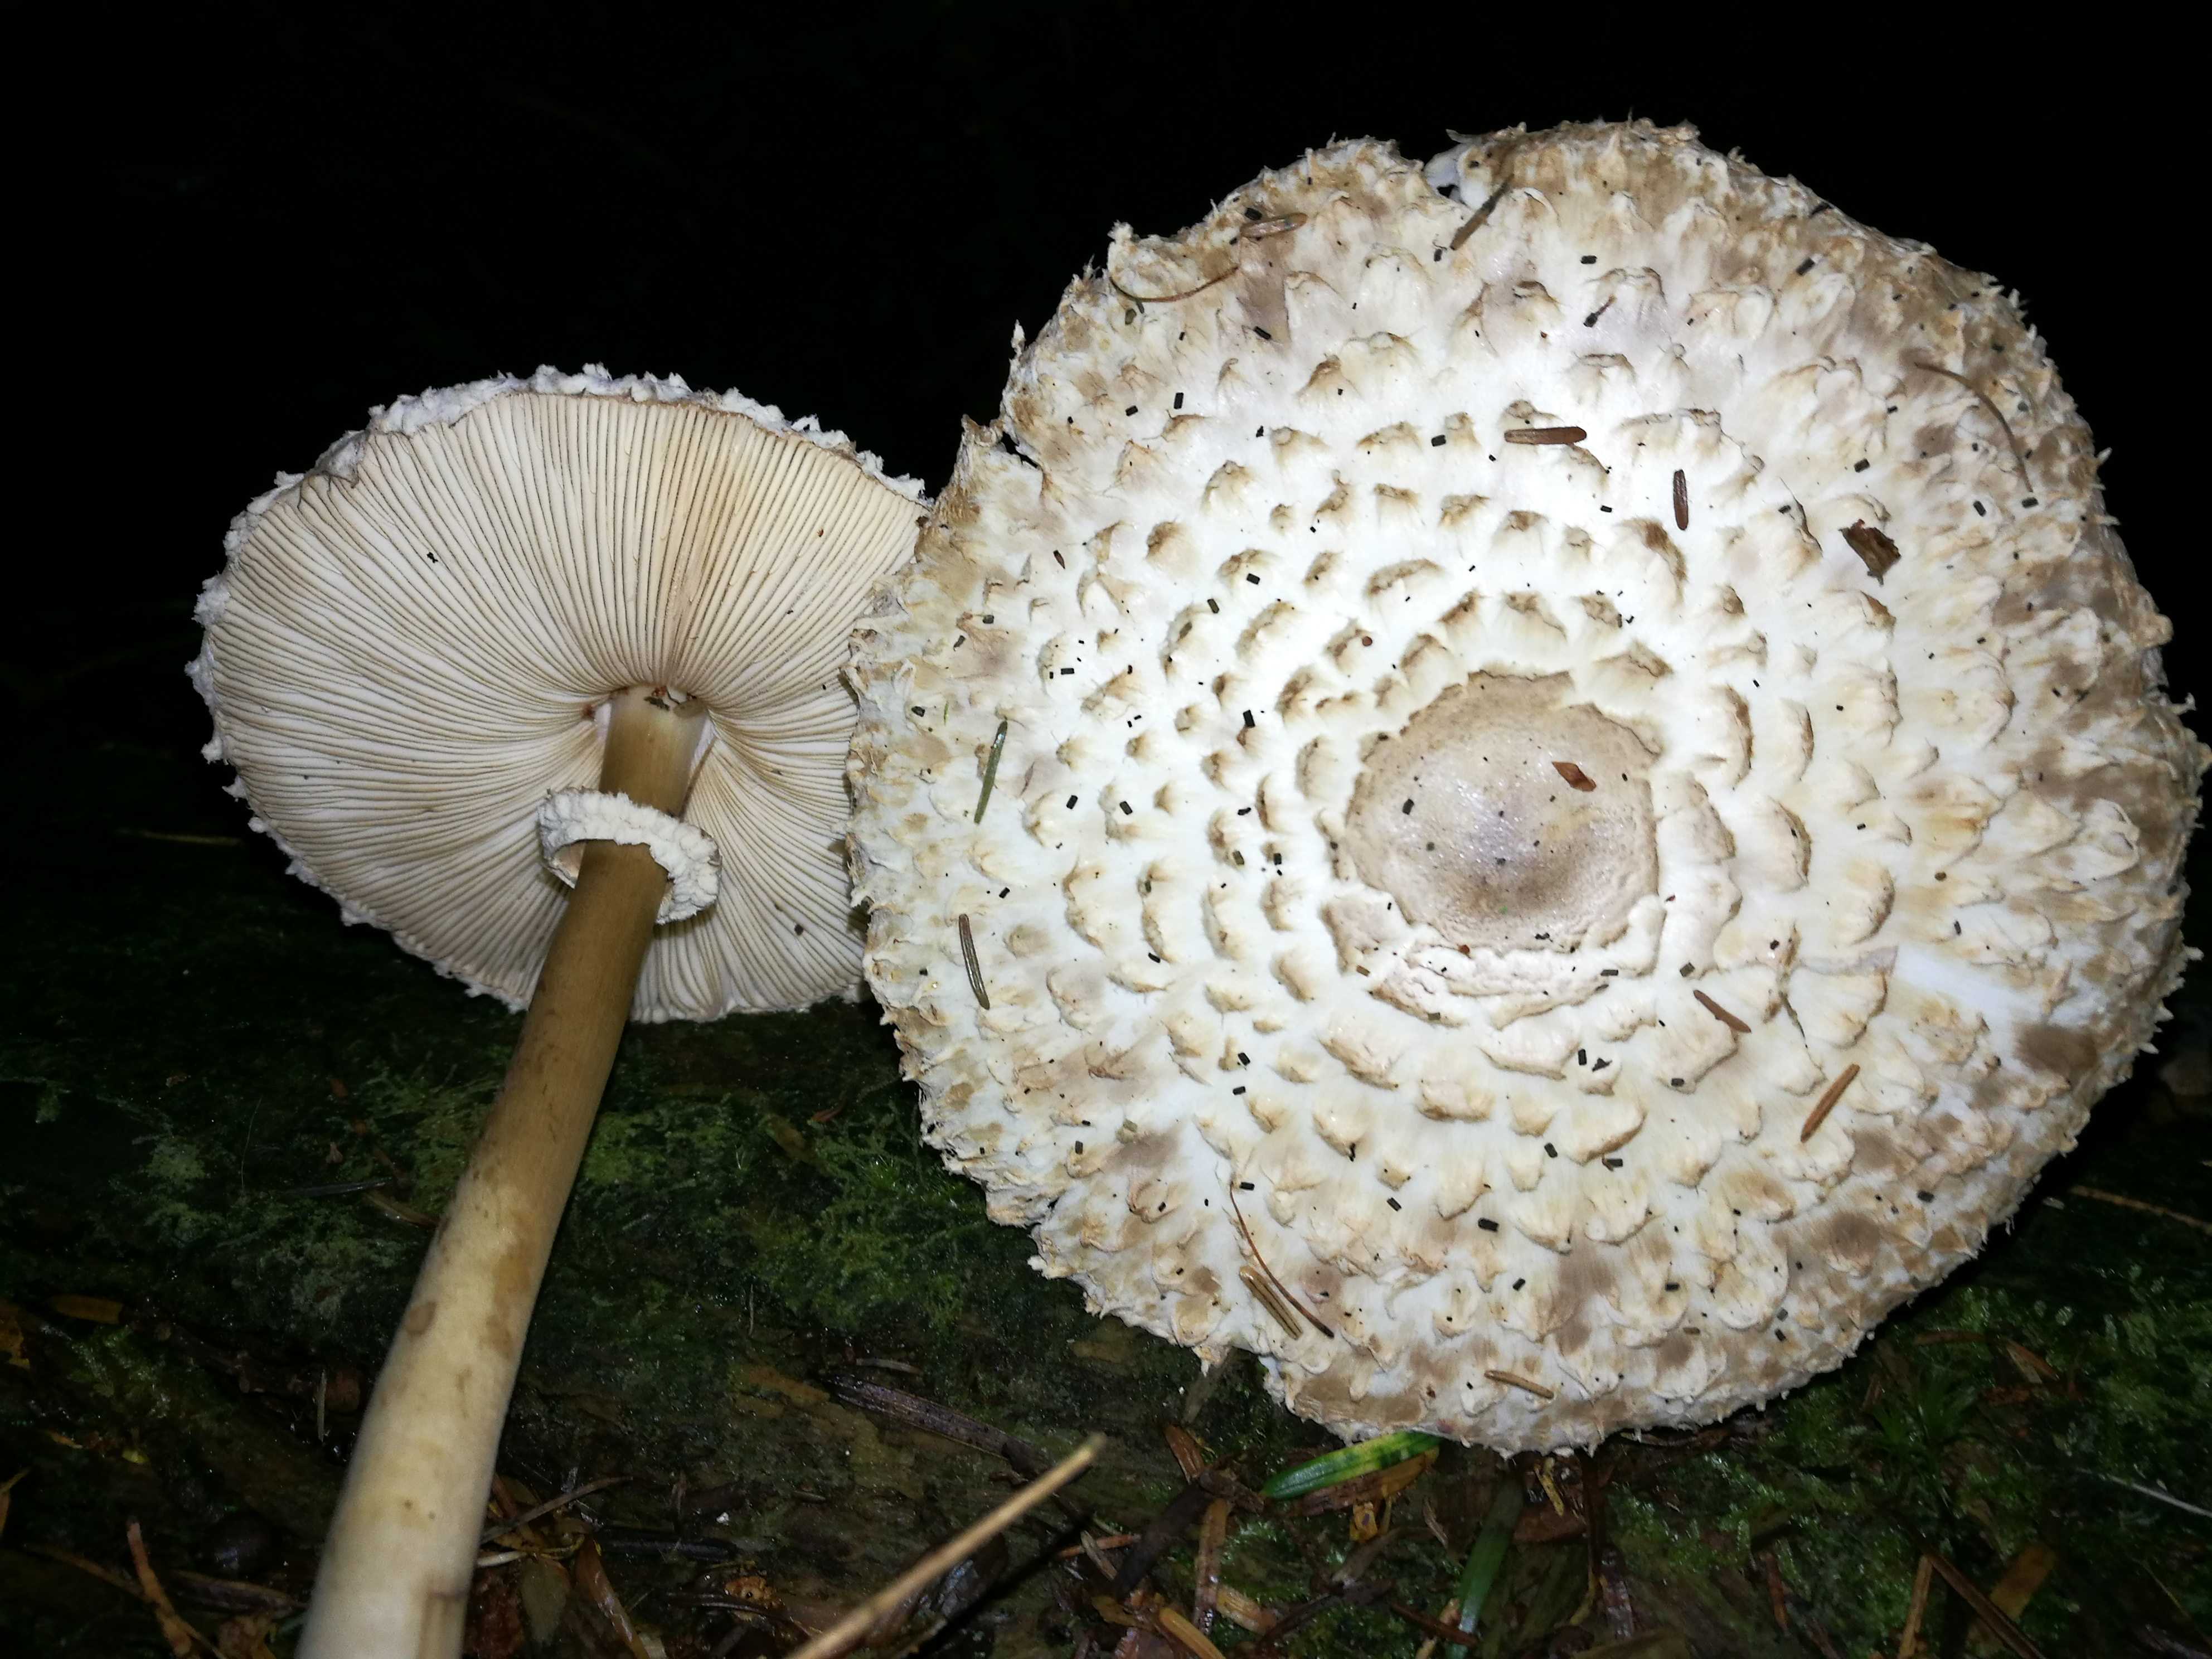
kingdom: Fungi
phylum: Basidiomycota
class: Agaricomycetes
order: Agaricales
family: Agaricaceae
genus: Leucoagaricus
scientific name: Leucoagaricus nympharum
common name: gran-silkehat
